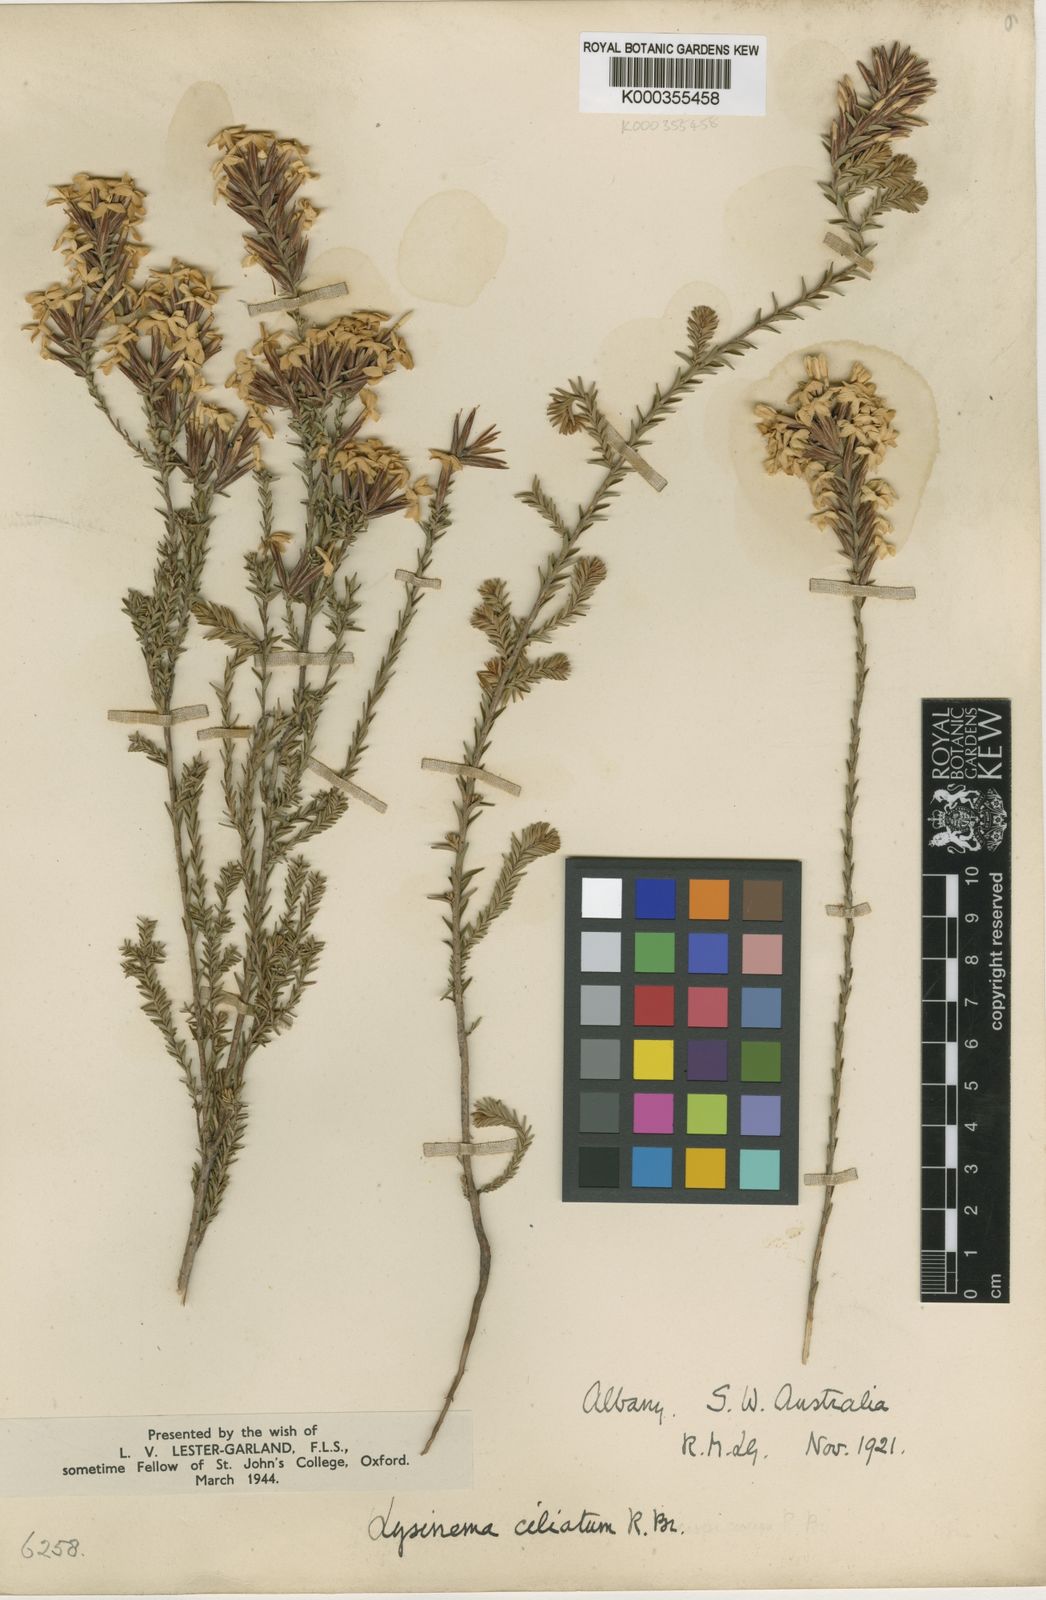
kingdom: Plantae
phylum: Tracheophyta
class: Magnoliopsida
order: Ericales
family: Ericaceae
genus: Lysinema
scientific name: Lysinema ciliatum
